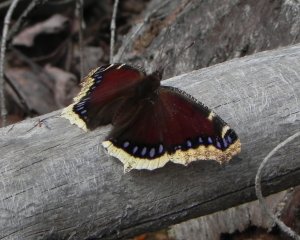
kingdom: Animalia
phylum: Arthropoda
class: Insecta
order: Lepidoptera
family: Nymphalidae
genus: Nymphalis
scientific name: Nymphalis antiopa
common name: Mourning Cloak
